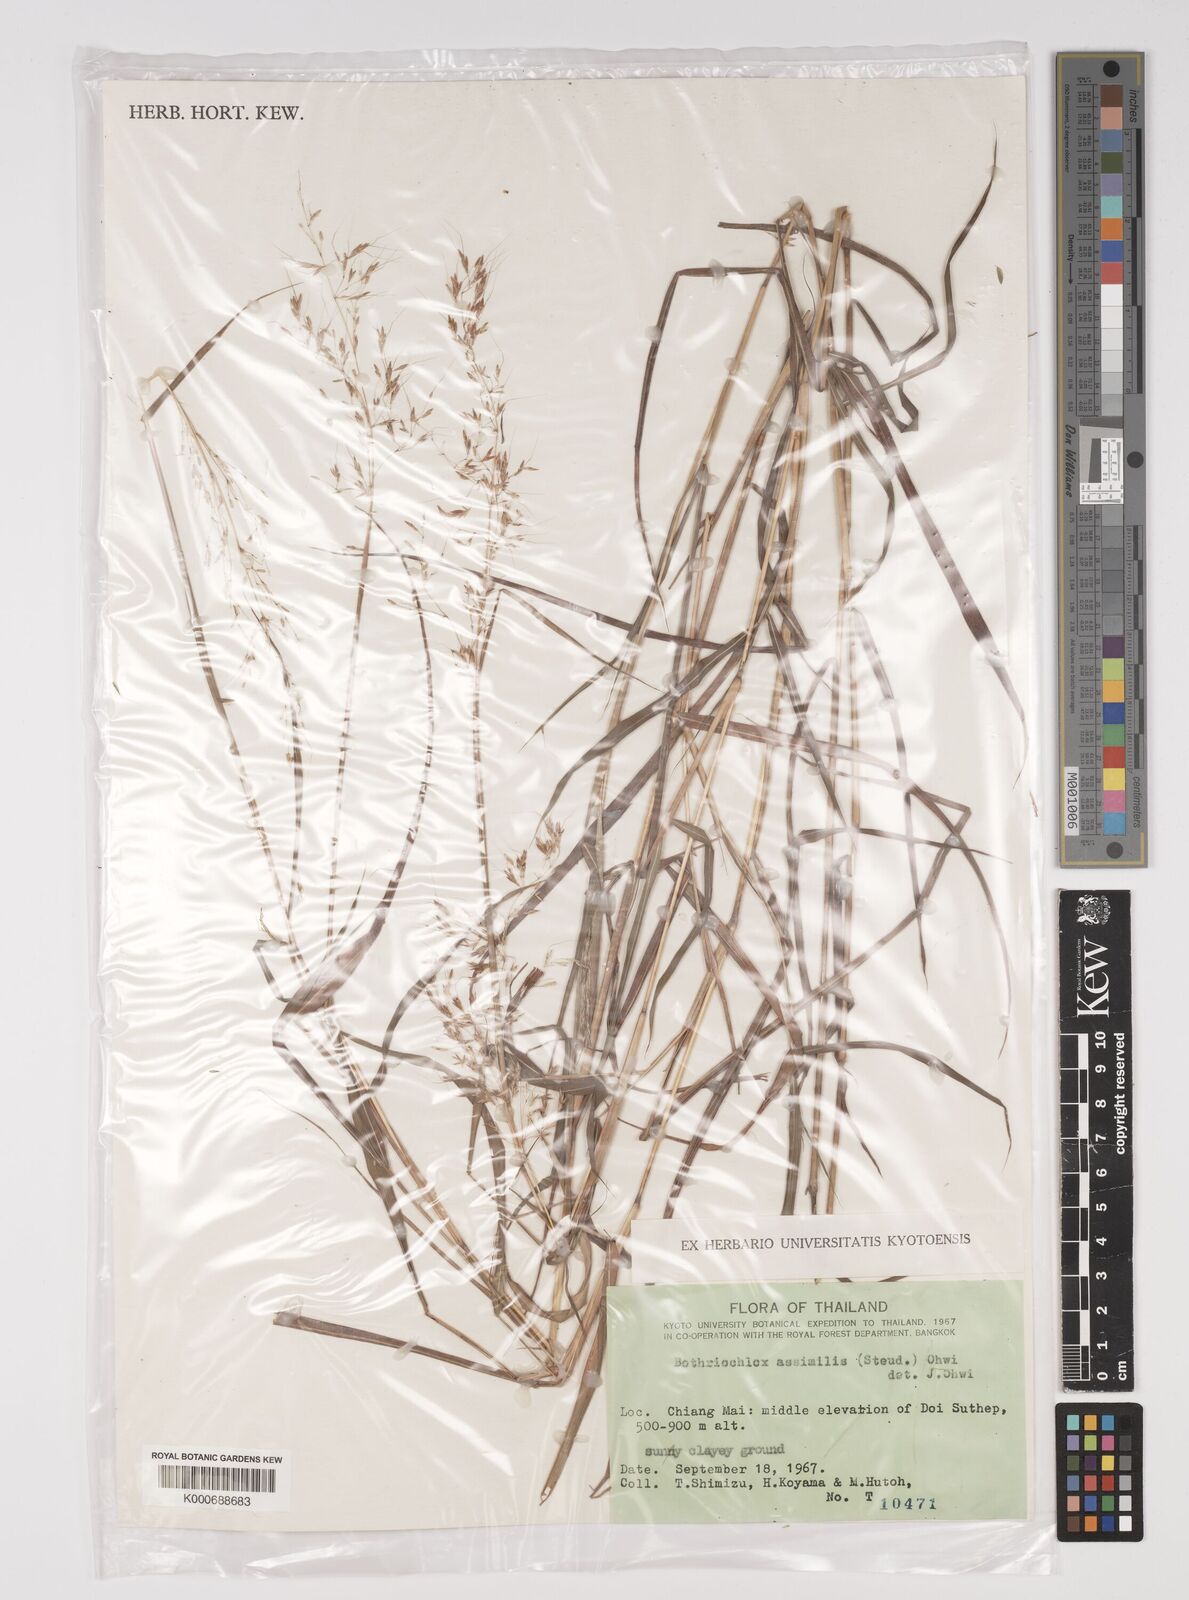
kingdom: Plantae
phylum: Tracheophyta
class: Liliopsida
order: Poales
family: Poaceae
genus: Capillipedium
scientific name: Capillipedium assimile
